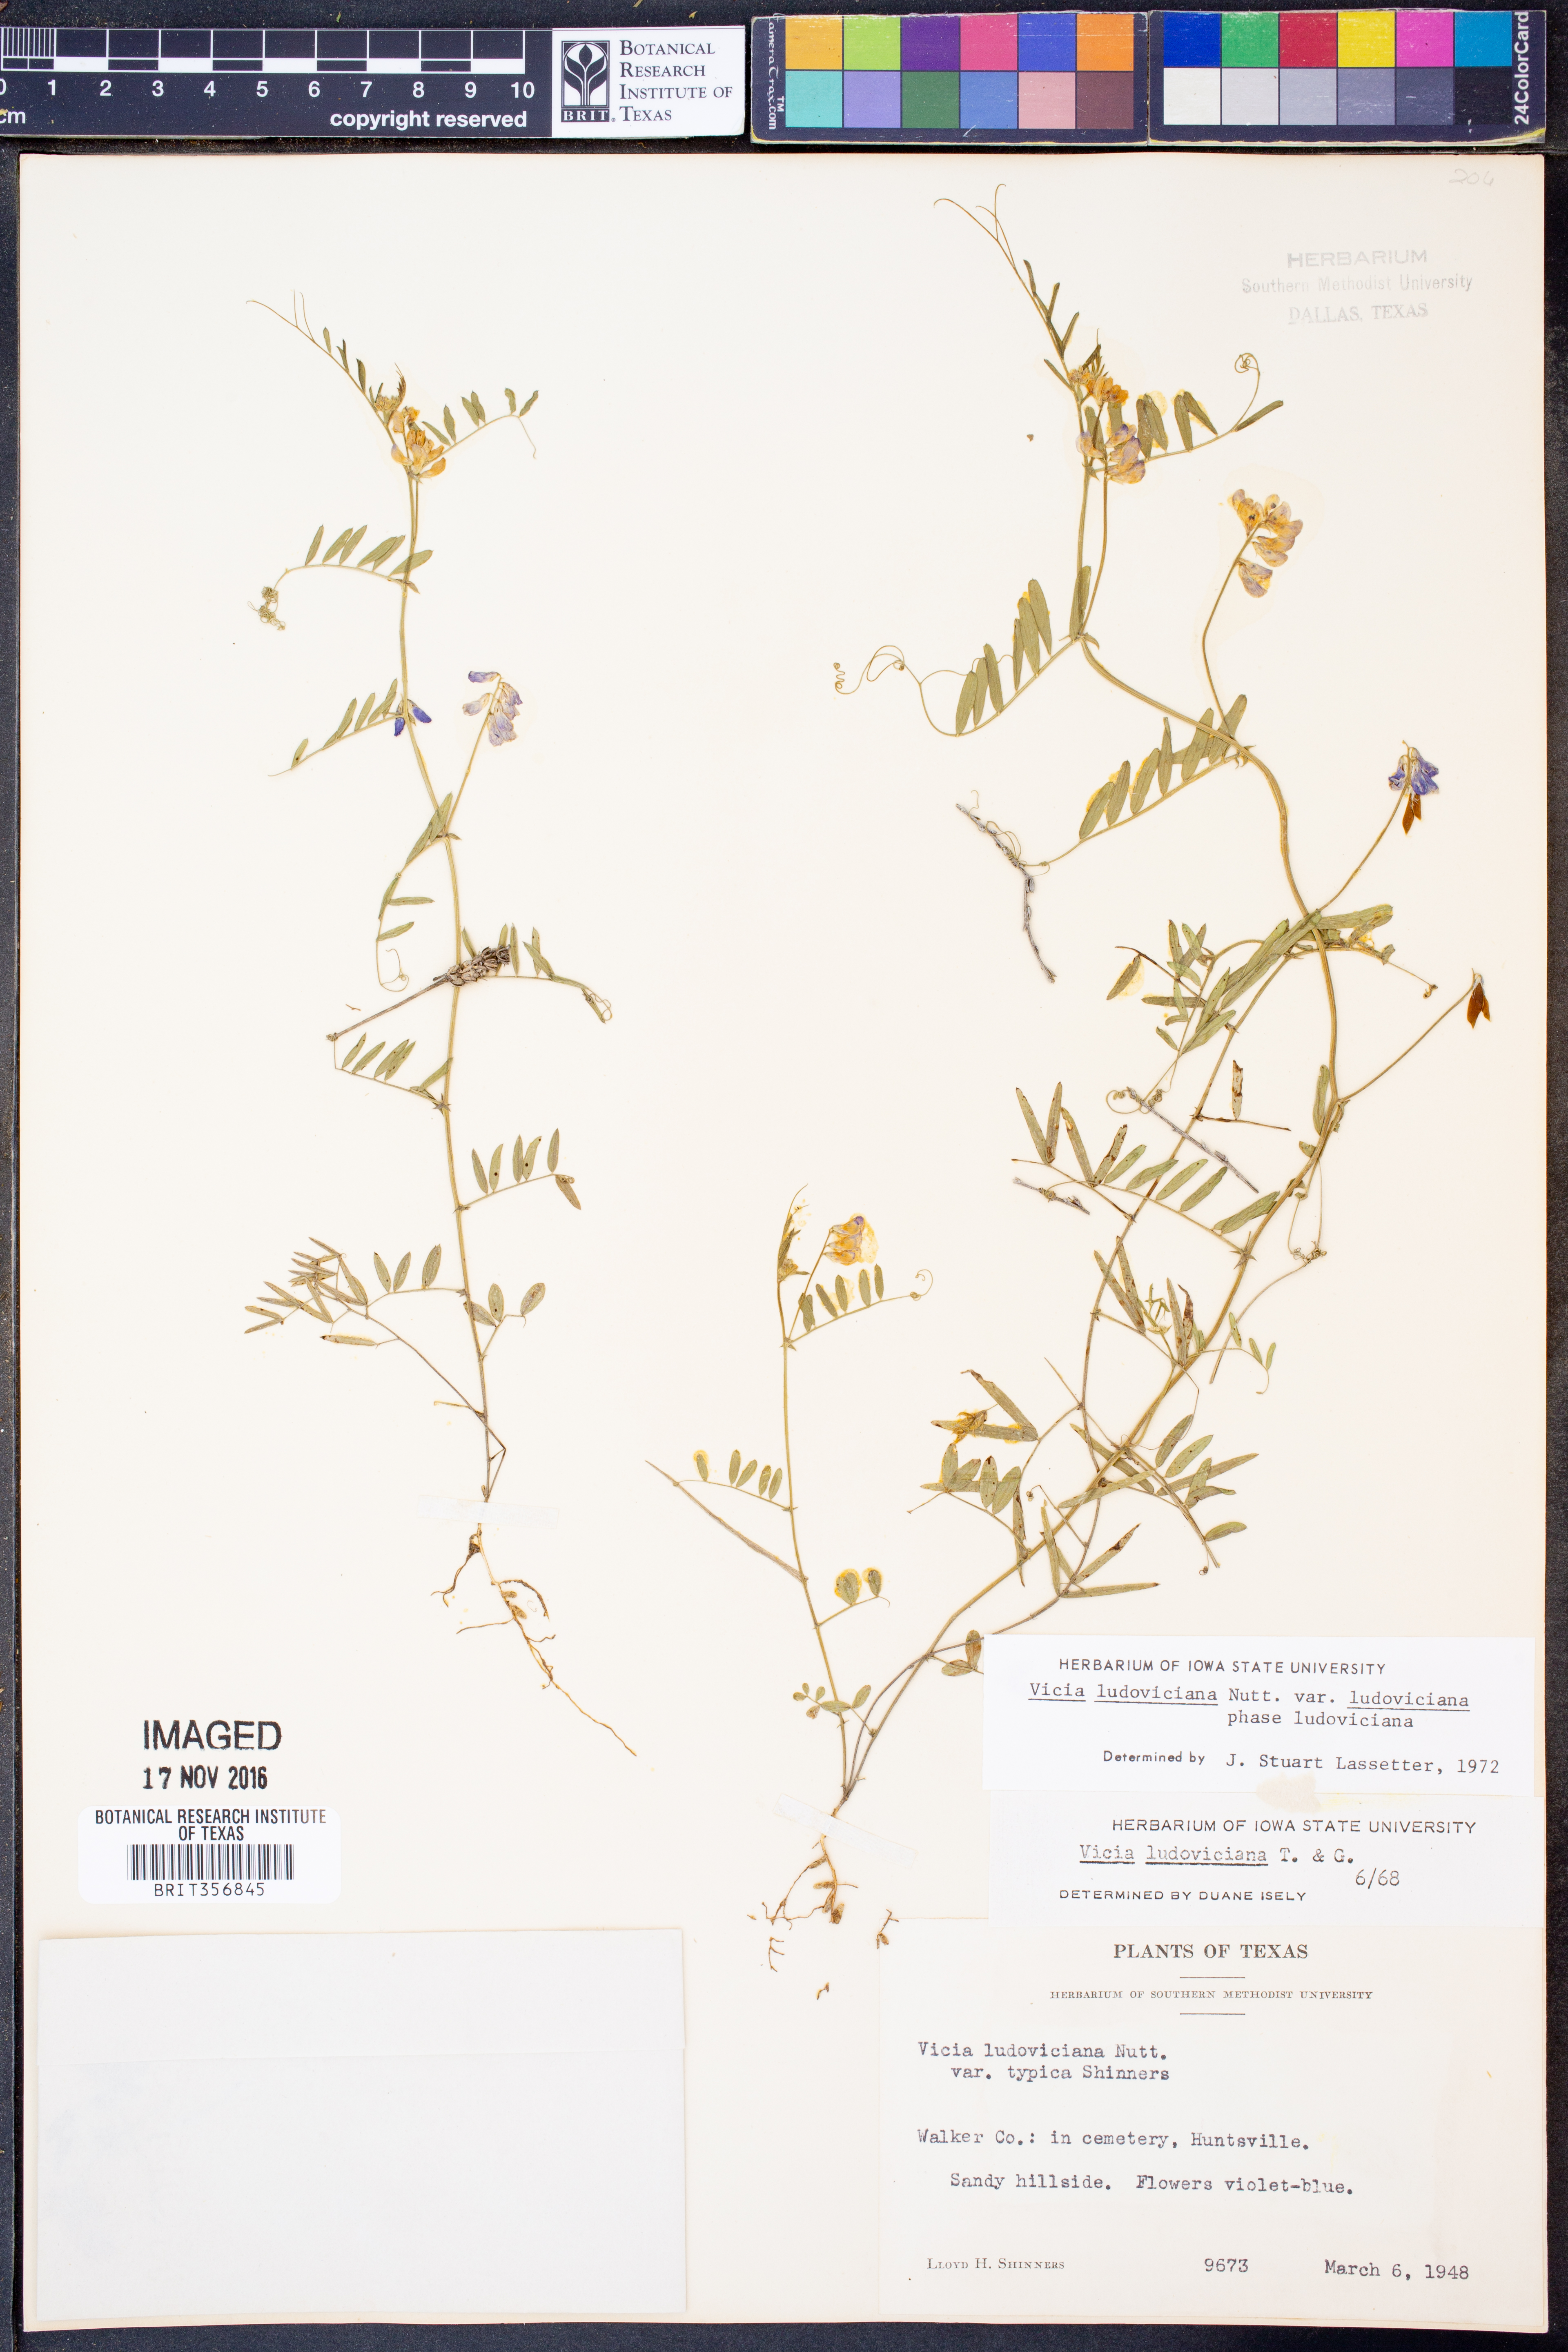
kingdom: Plantae
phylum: Tracheophyta
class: Magnoliopsida
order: Fabales
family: Fabaceae
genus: Vicia
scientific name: Vicia ludoviciana
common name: Louisiana vetch
